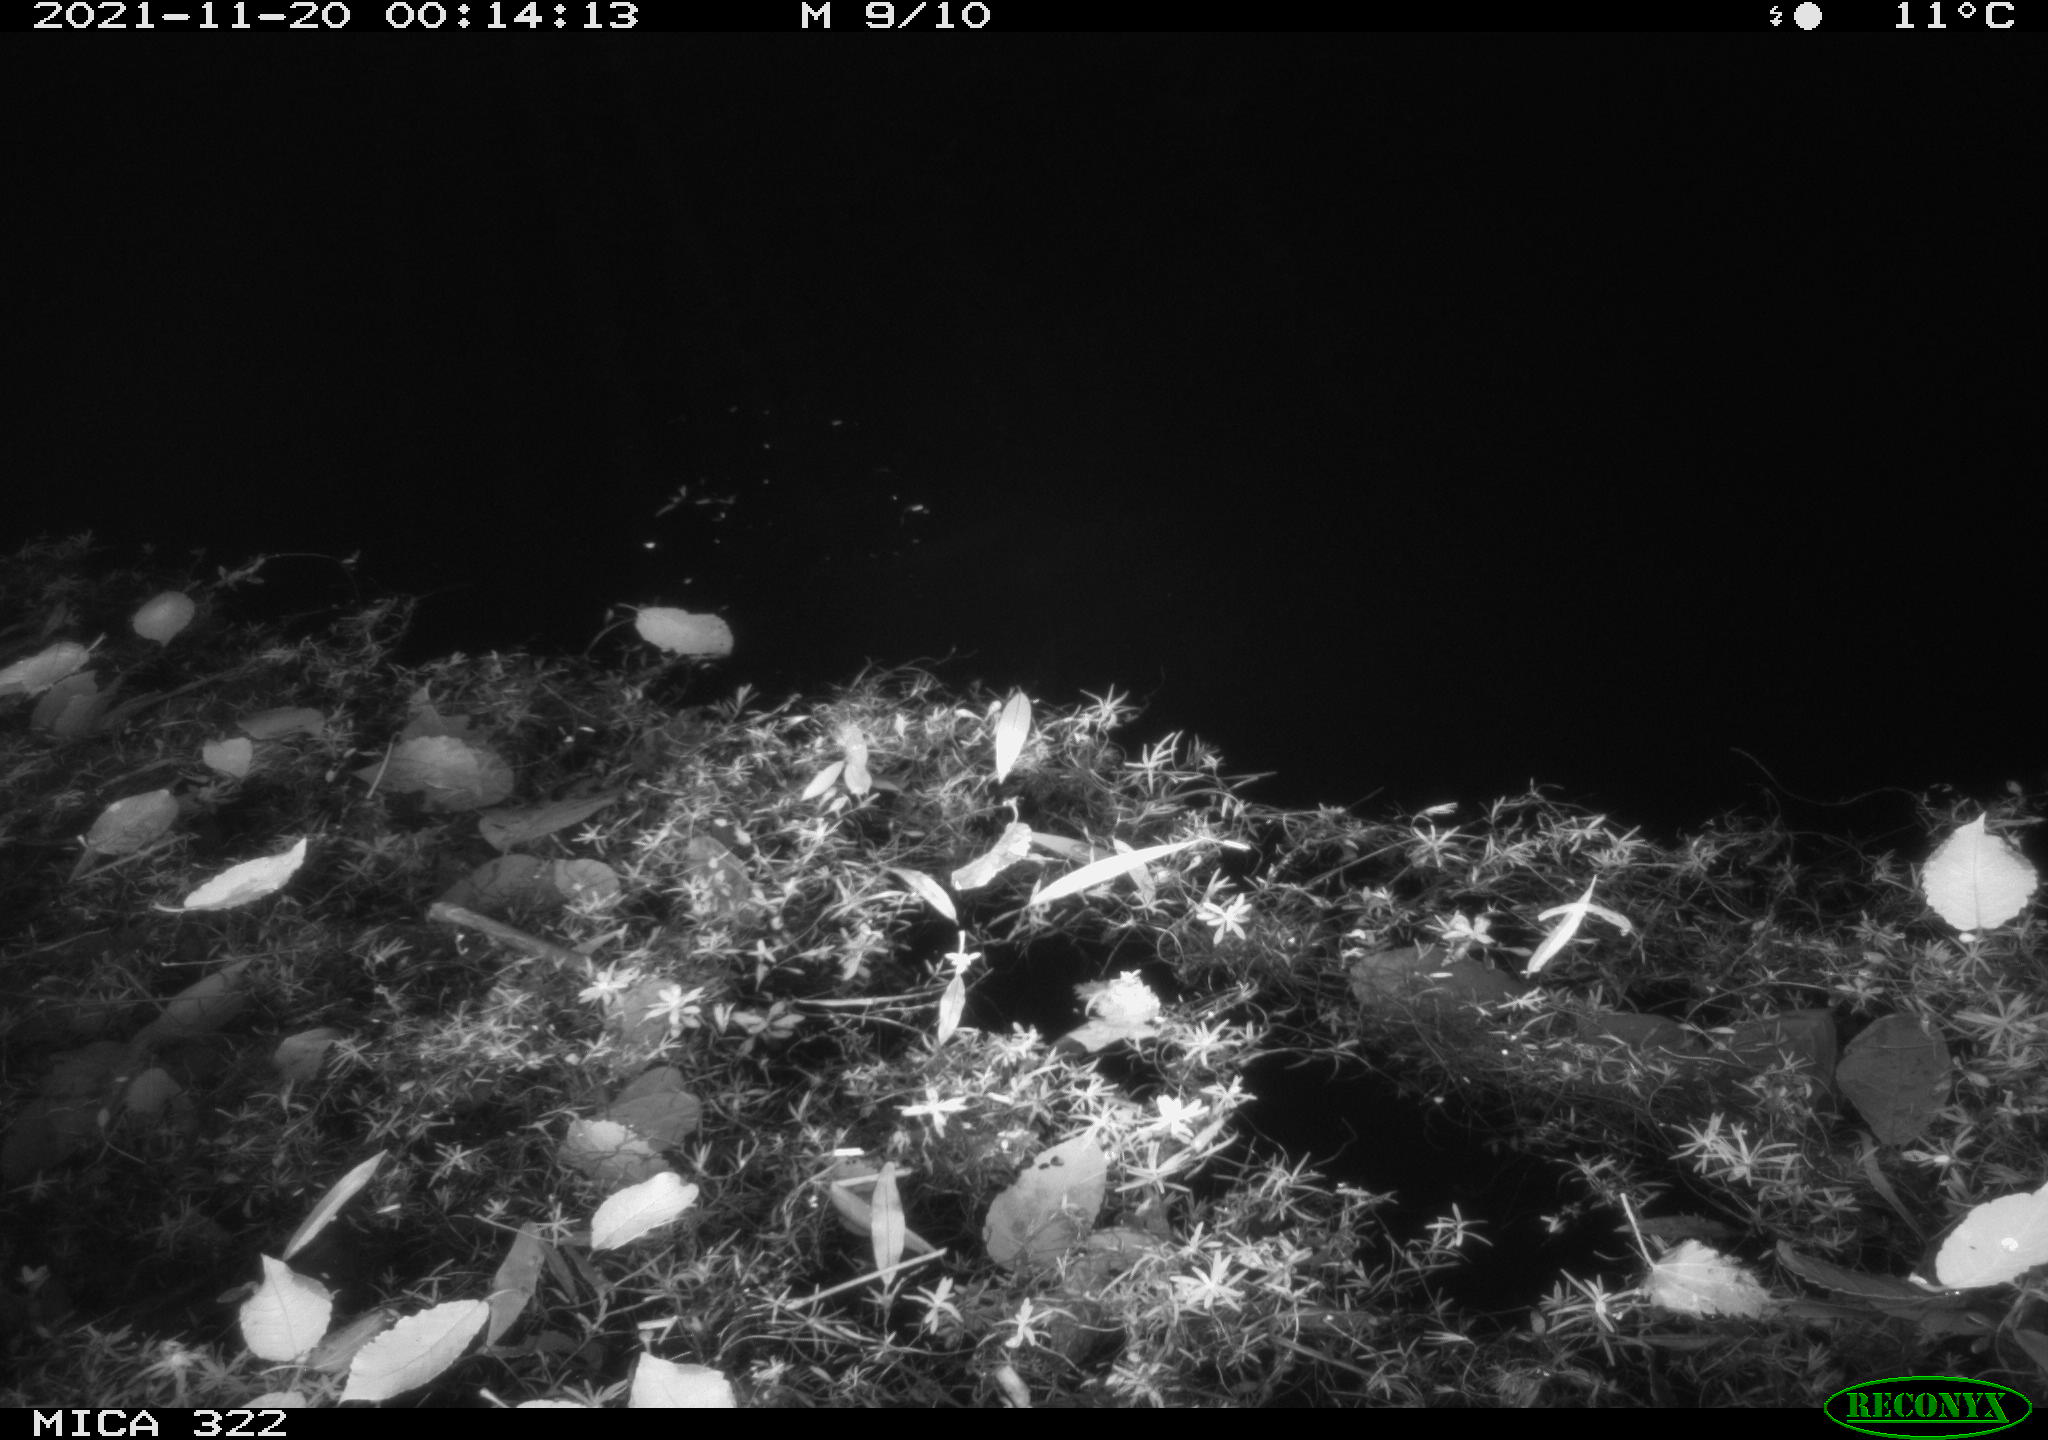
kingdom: Animalia
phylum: Chordata
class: Mammalia
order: Rodentia
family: Muridae
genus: Rattus
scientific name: Rattus norvegicus
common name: Brown rat
